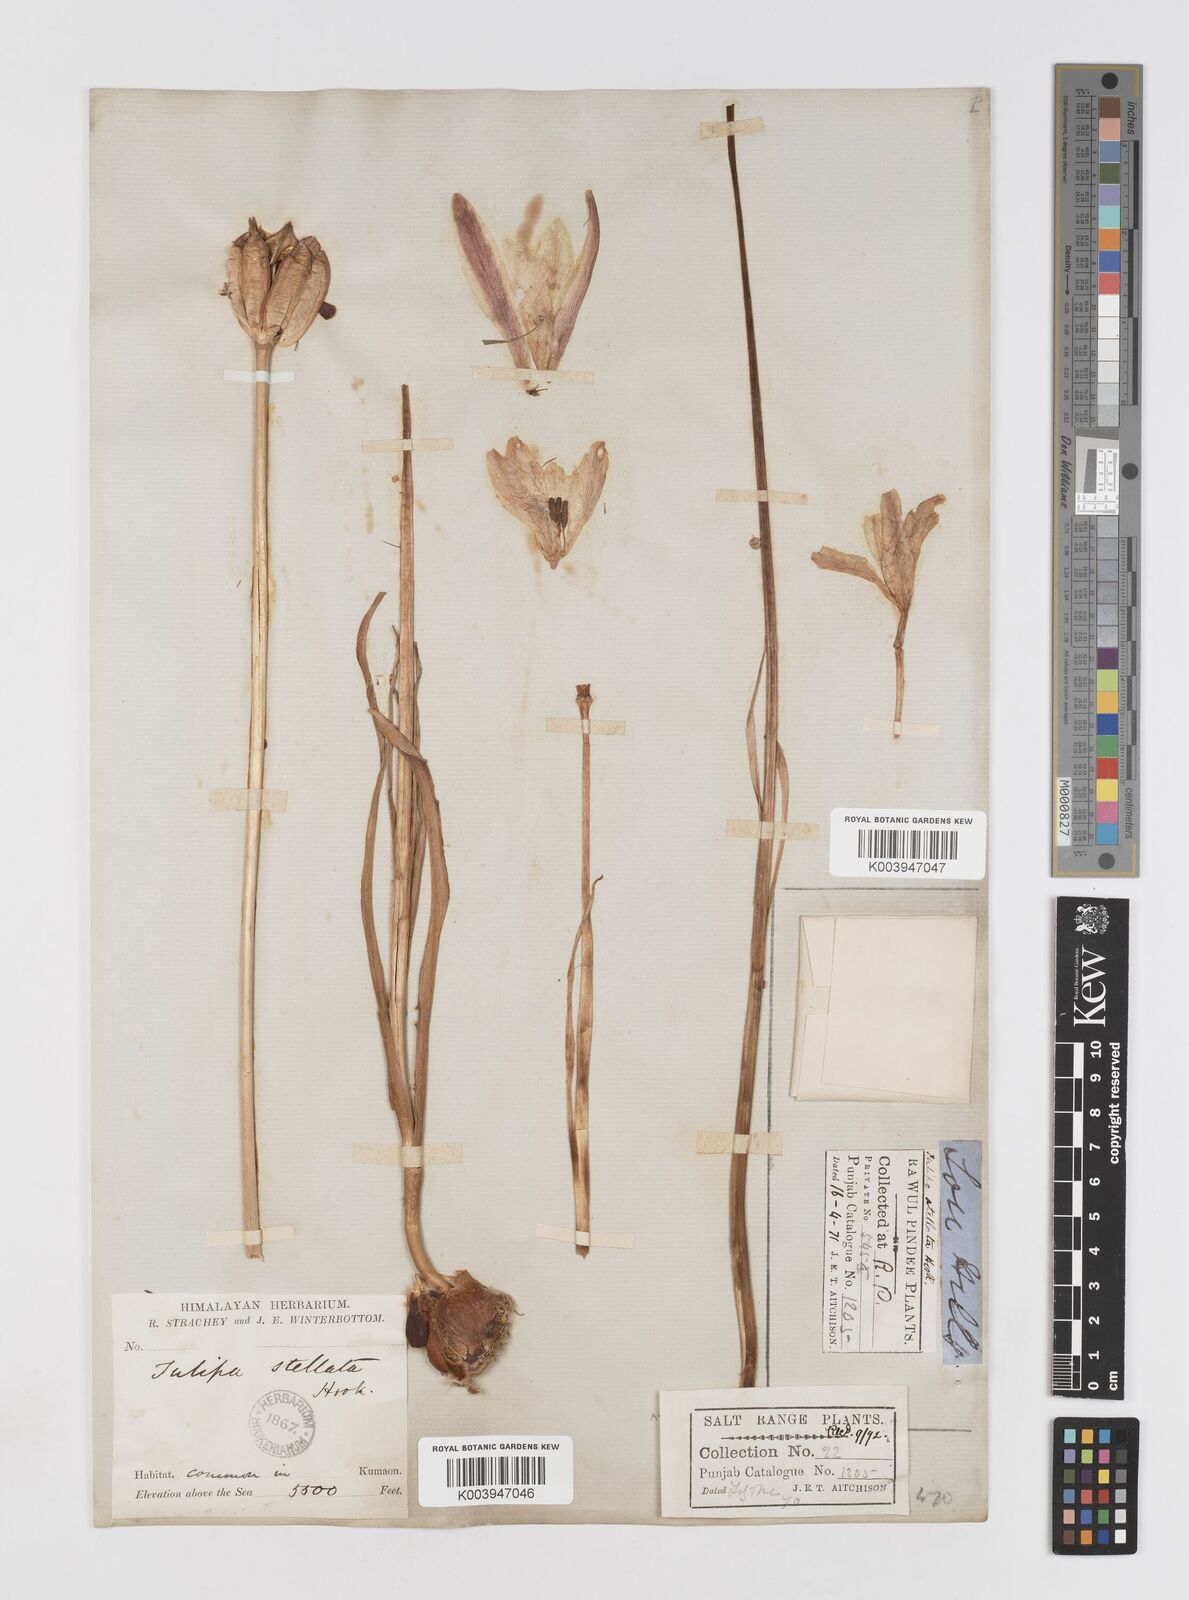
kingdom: Plantae
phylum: Tracheophyta
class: Liliopsida
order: Liliales
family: Liliaceae
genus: Tulipa
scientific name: Tulipa clusiana
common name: Lady tulip
